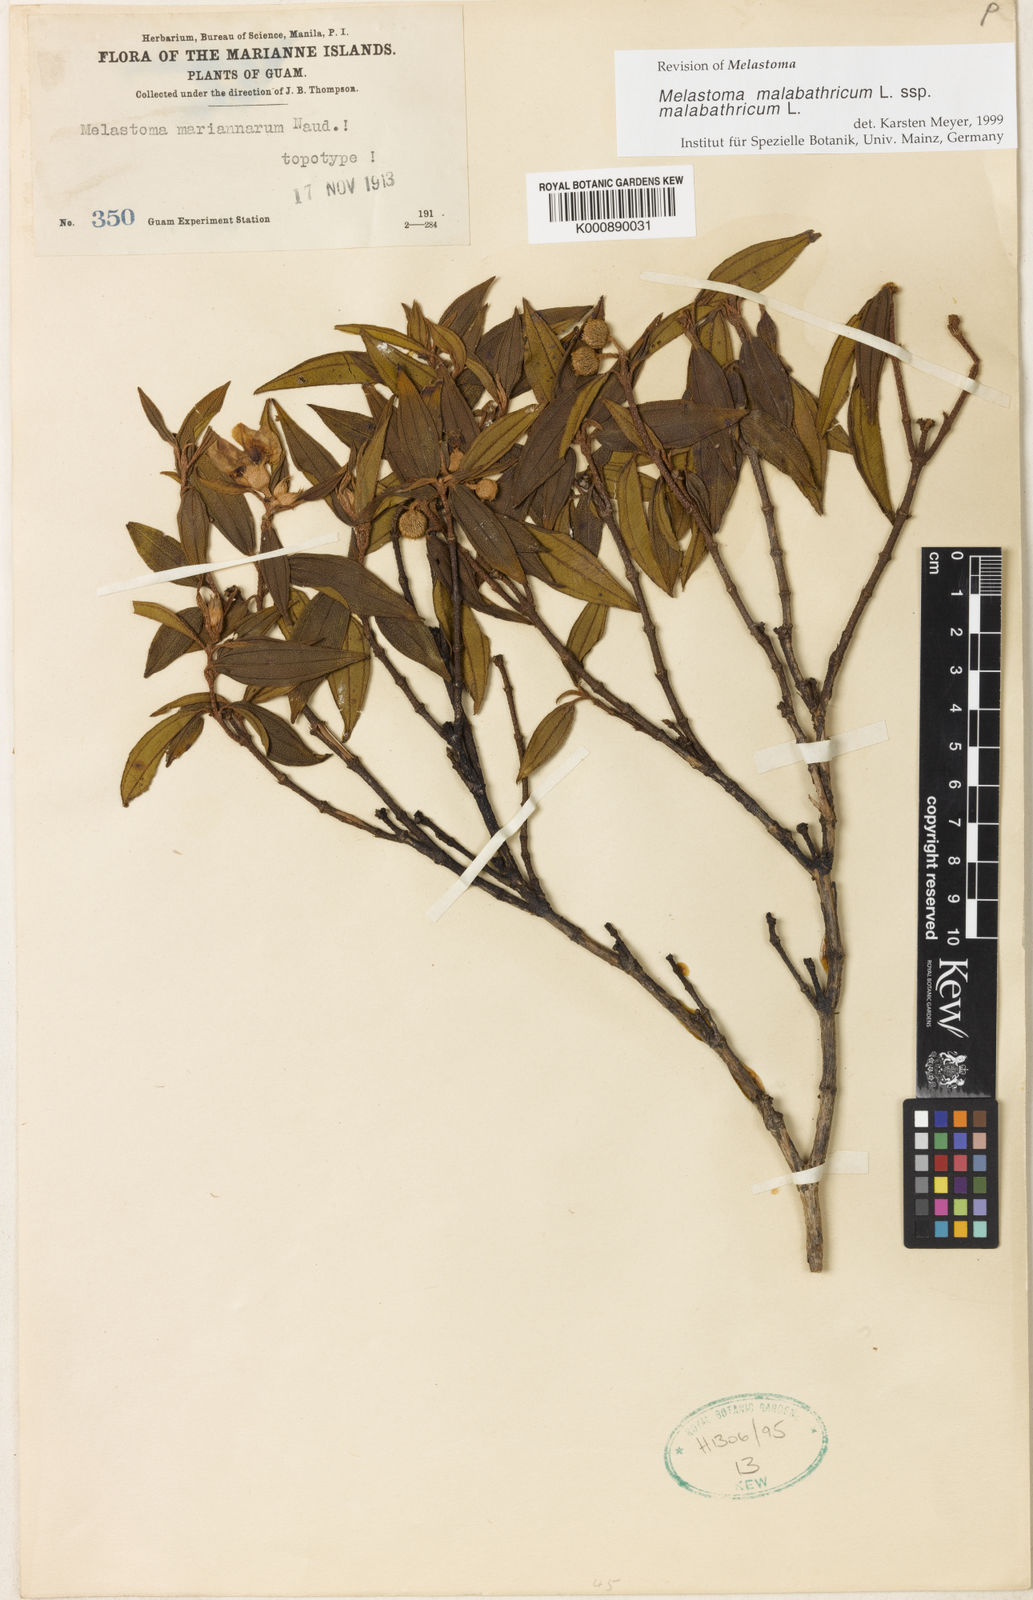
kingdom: Plantae
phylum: Tracheophyta
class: Magnoliopsida
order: Myrtales
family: Melastomataceae
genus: Melastoma
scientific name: Melastoma malabathricum
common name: Indian-rhododendron
